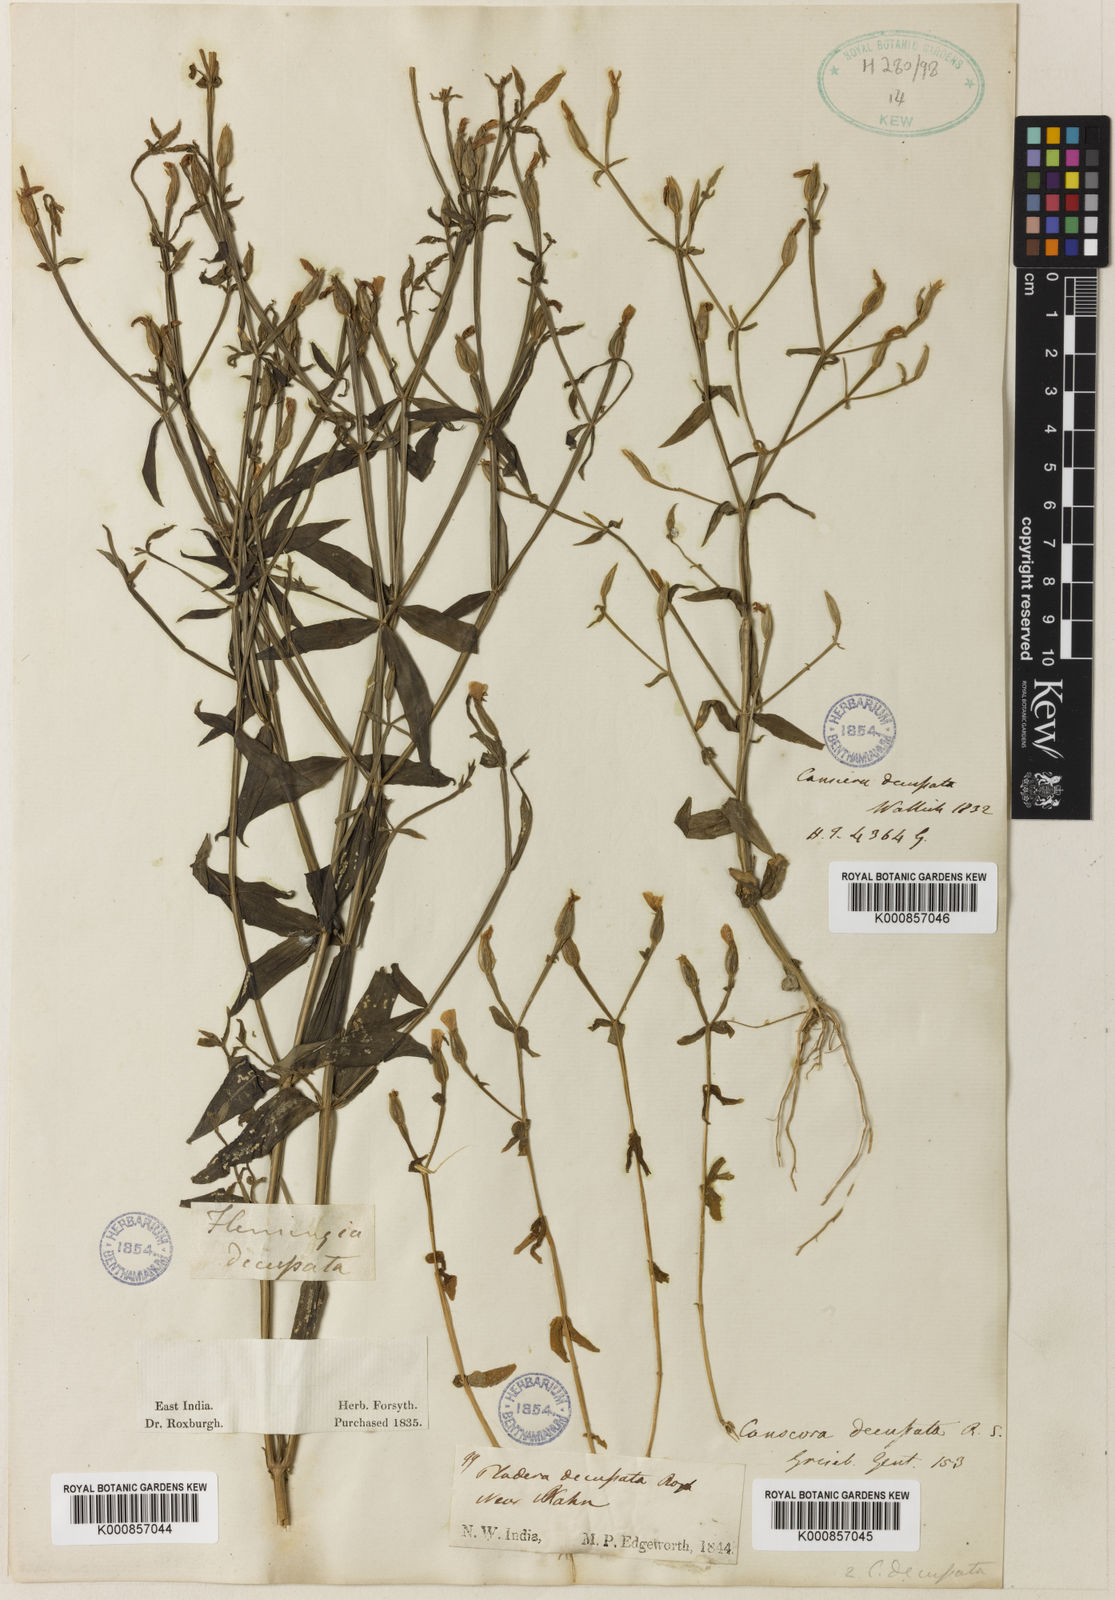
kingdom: Plantae
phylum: Tracheophyta
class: Magnoliopsida
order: Gentianales
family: Gentianaceae
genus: Canscora
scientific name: Canscora alata
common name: Canscora
